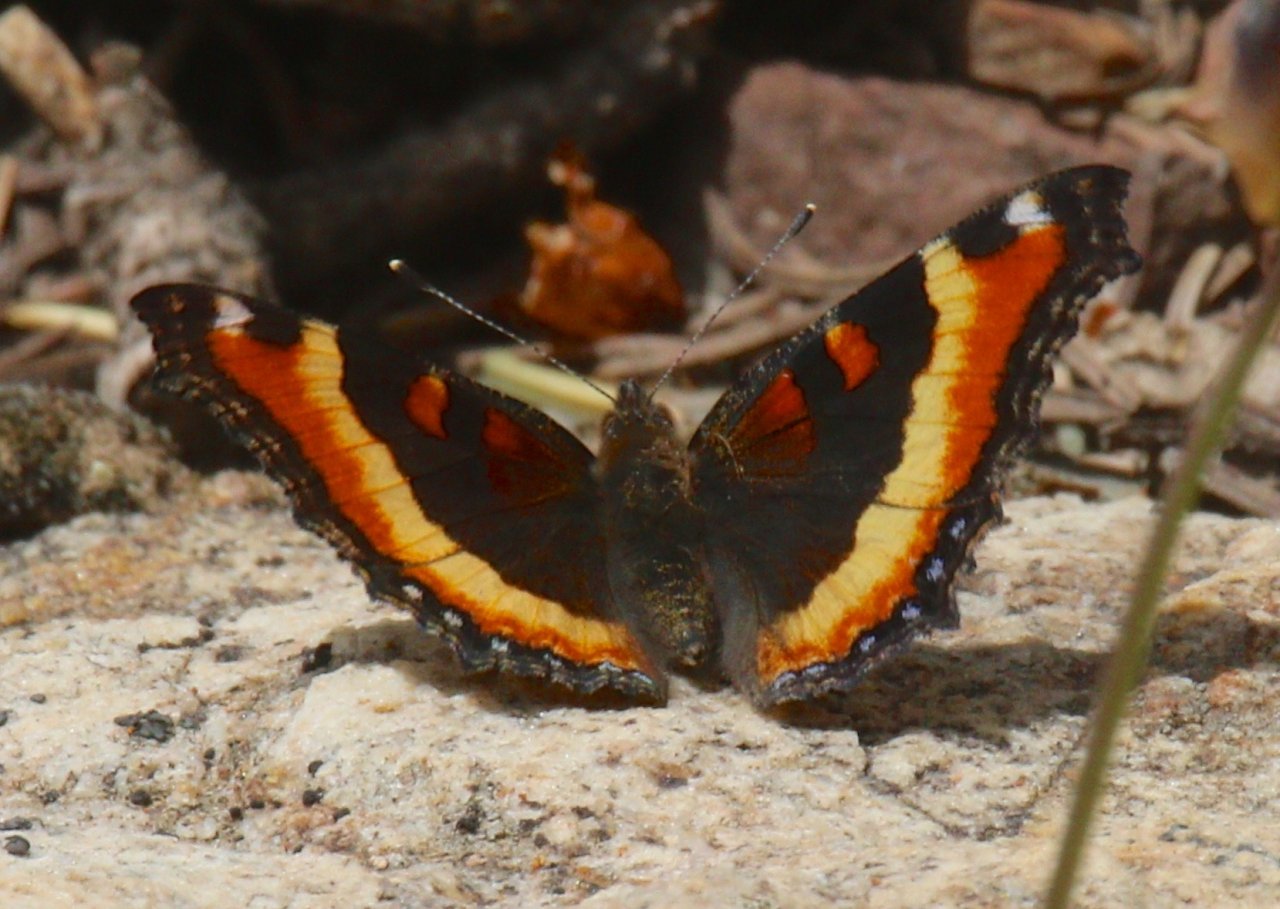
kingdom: Animalia
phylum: Arthropoda
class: Insecta
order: Lepidoptera
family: Nymphalidae
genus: Aglais
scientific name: Aglais milberti
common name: Milbert's Tortoiseshell
